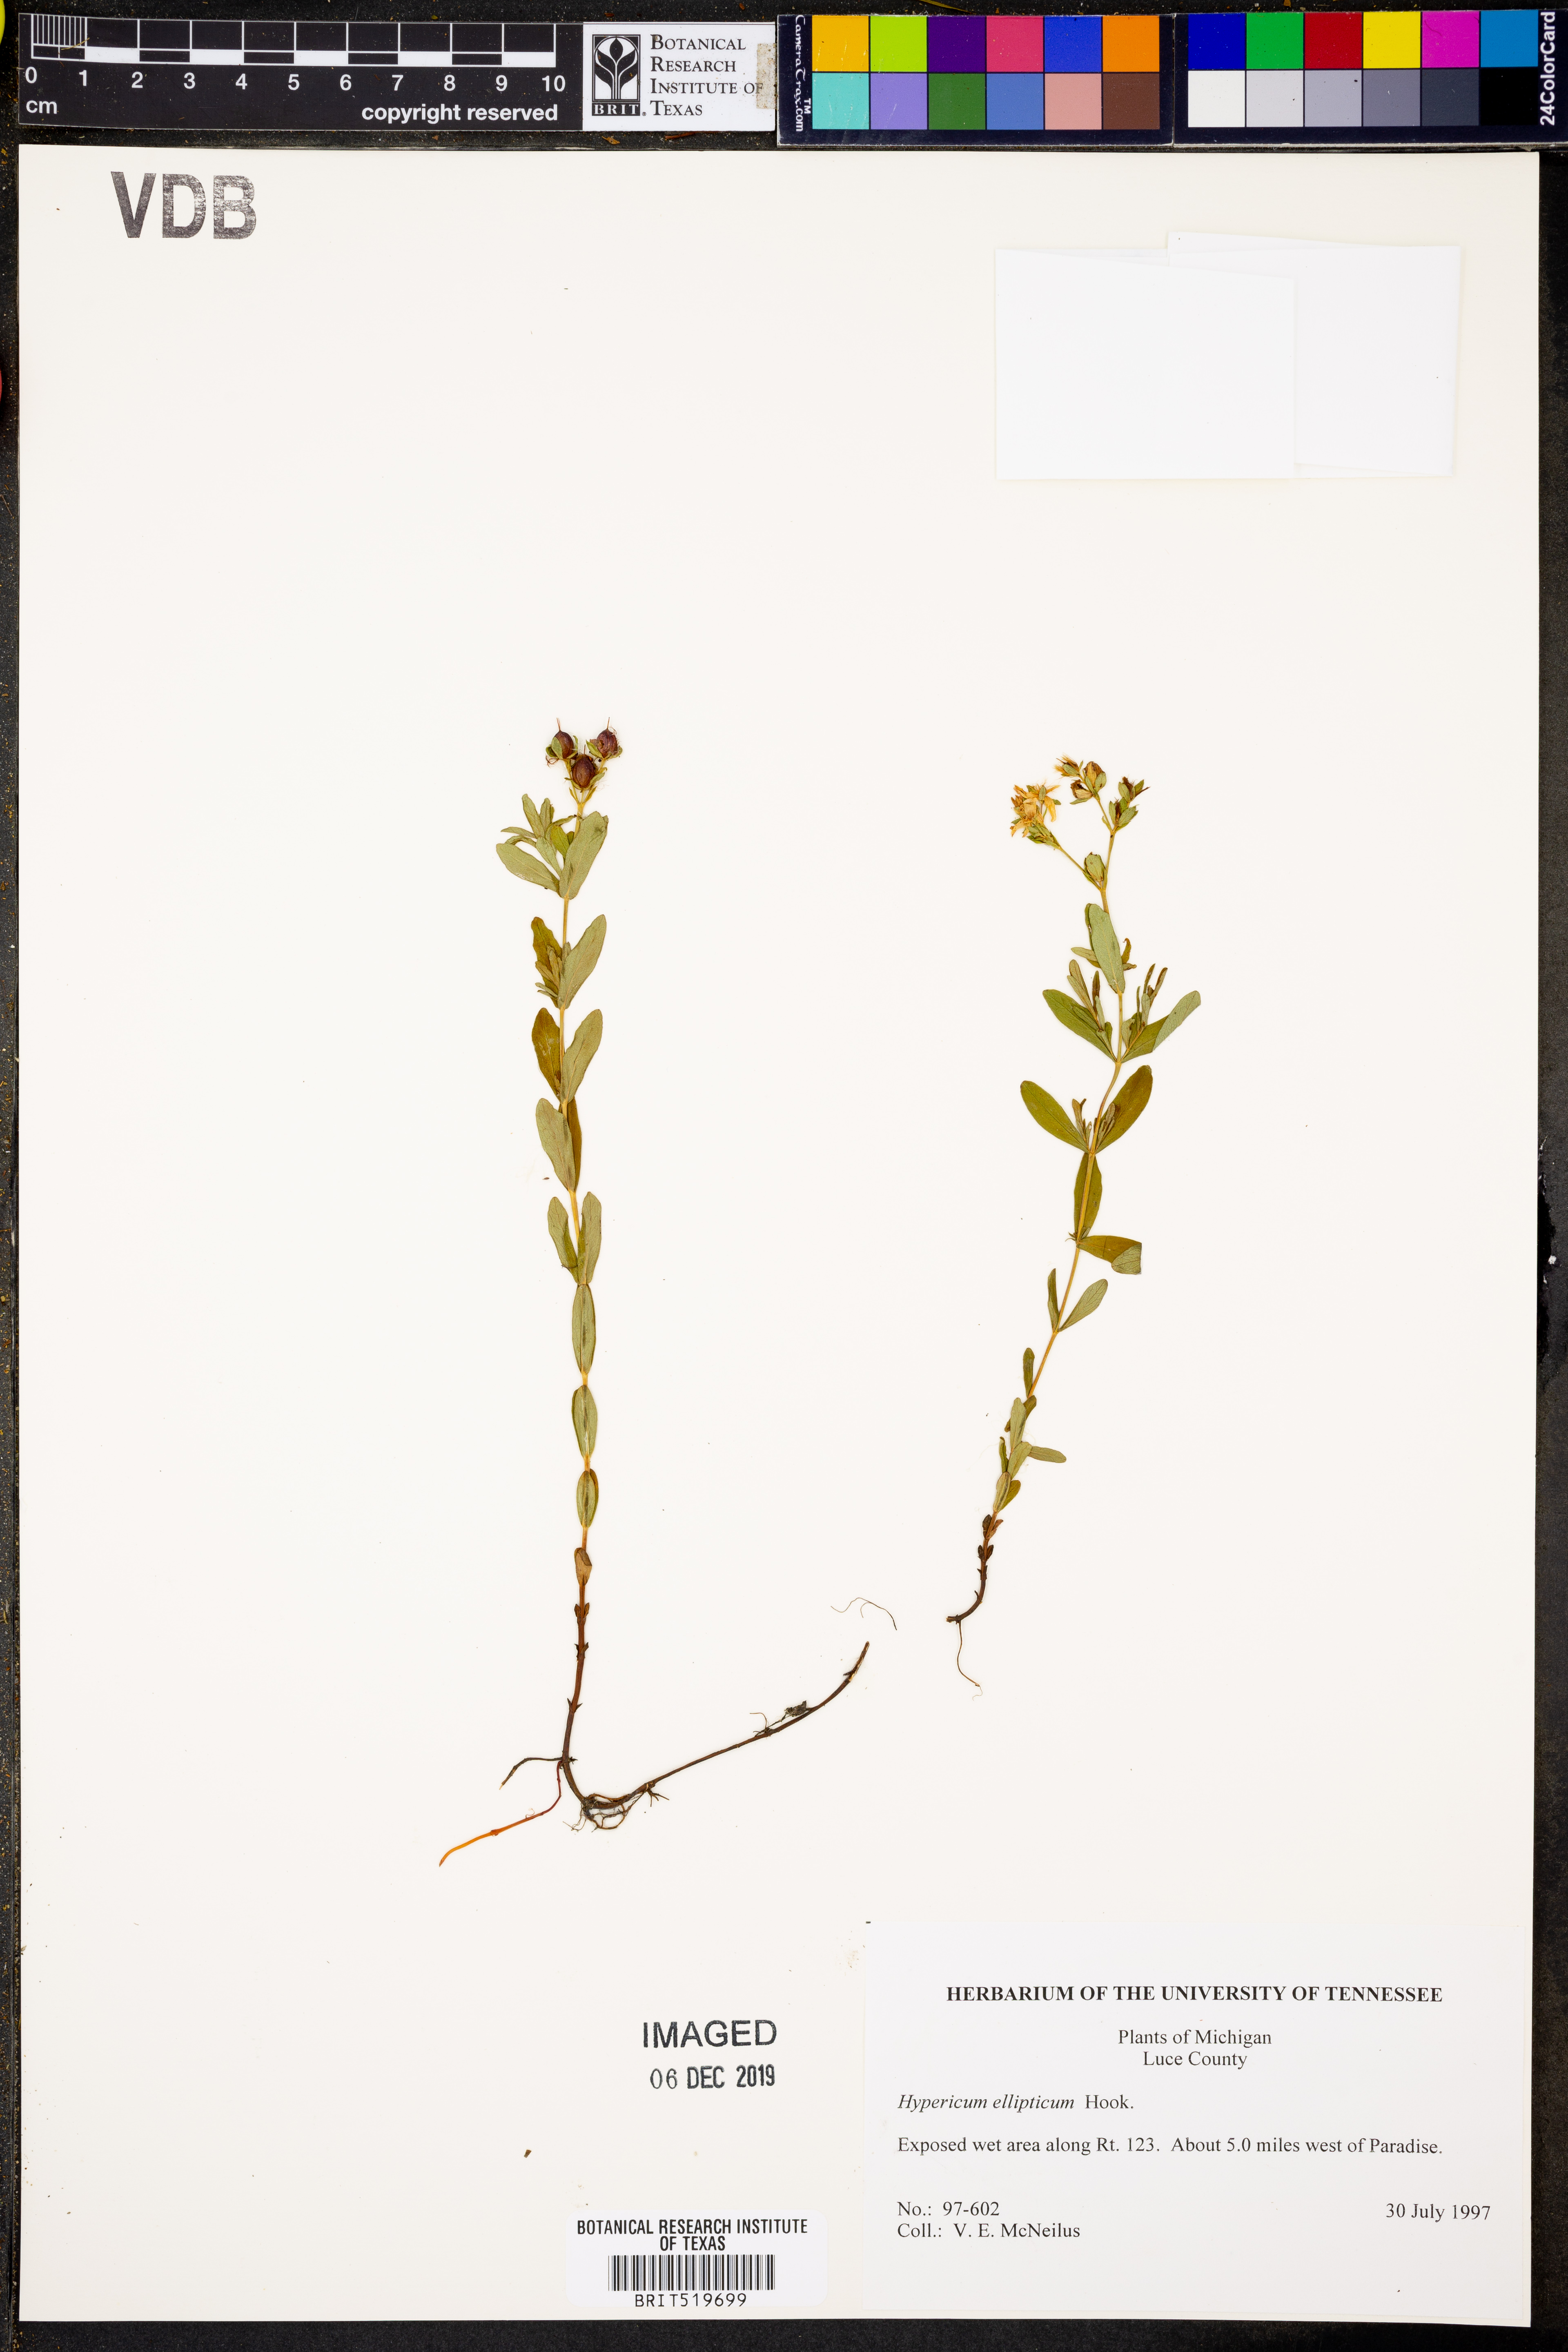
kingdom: Plantae
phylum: Tracheophyta
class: Magnoliopsida
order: Malpighiales
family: Hypericaceae
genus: Hypericum
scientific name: Hypericum ellipticum
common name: Elliptic st. john's-wort
